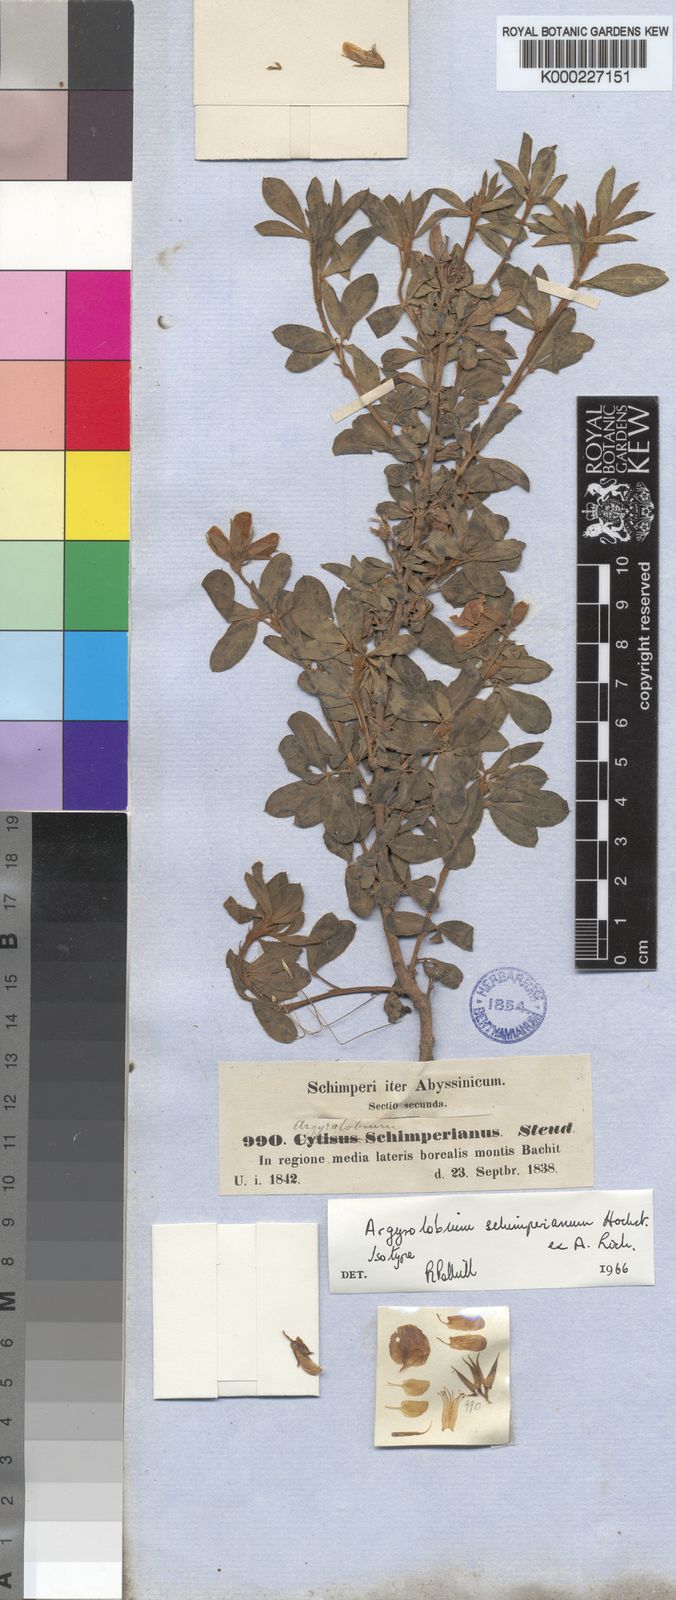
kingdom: Plantae
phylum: Tracheophyta
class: Magnoliopsida
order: Fabales
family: Fabaceae
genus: Argyrolobium
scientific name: Argyrolobium
